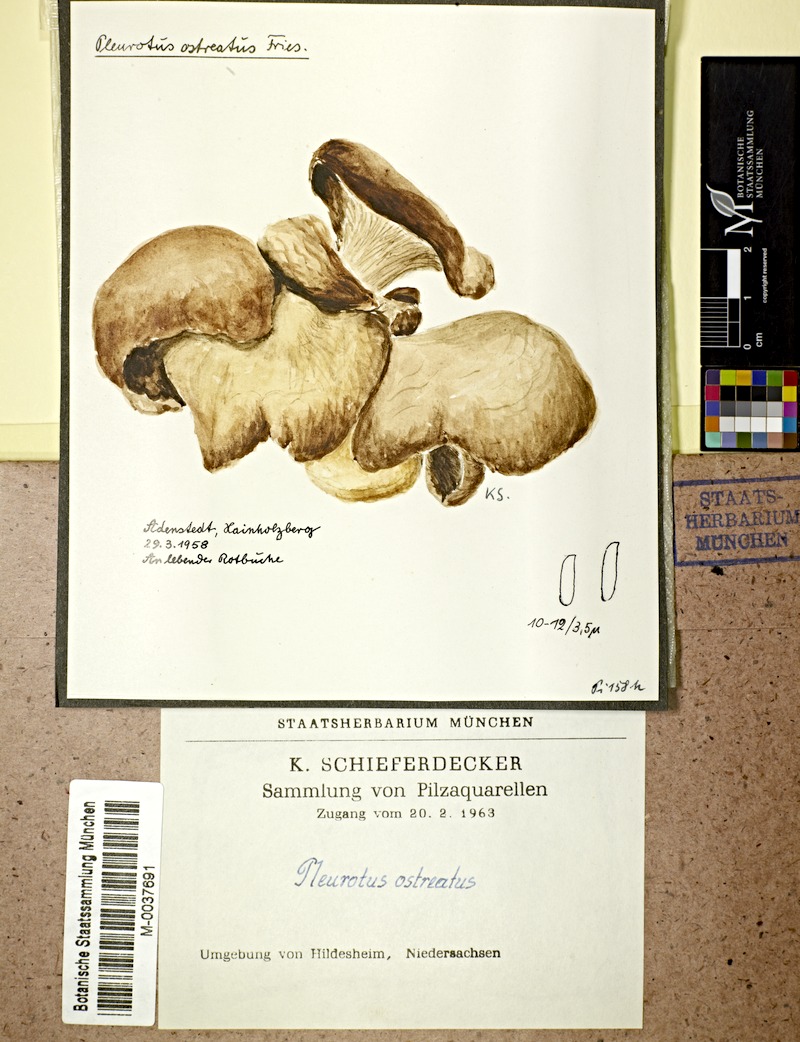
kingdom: Plantae
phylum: Tracheophyta
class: Magnoliopsida
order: Fagales
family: Fagaceae
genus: Fagus
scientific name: Fagus sylvatica
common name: Beech
